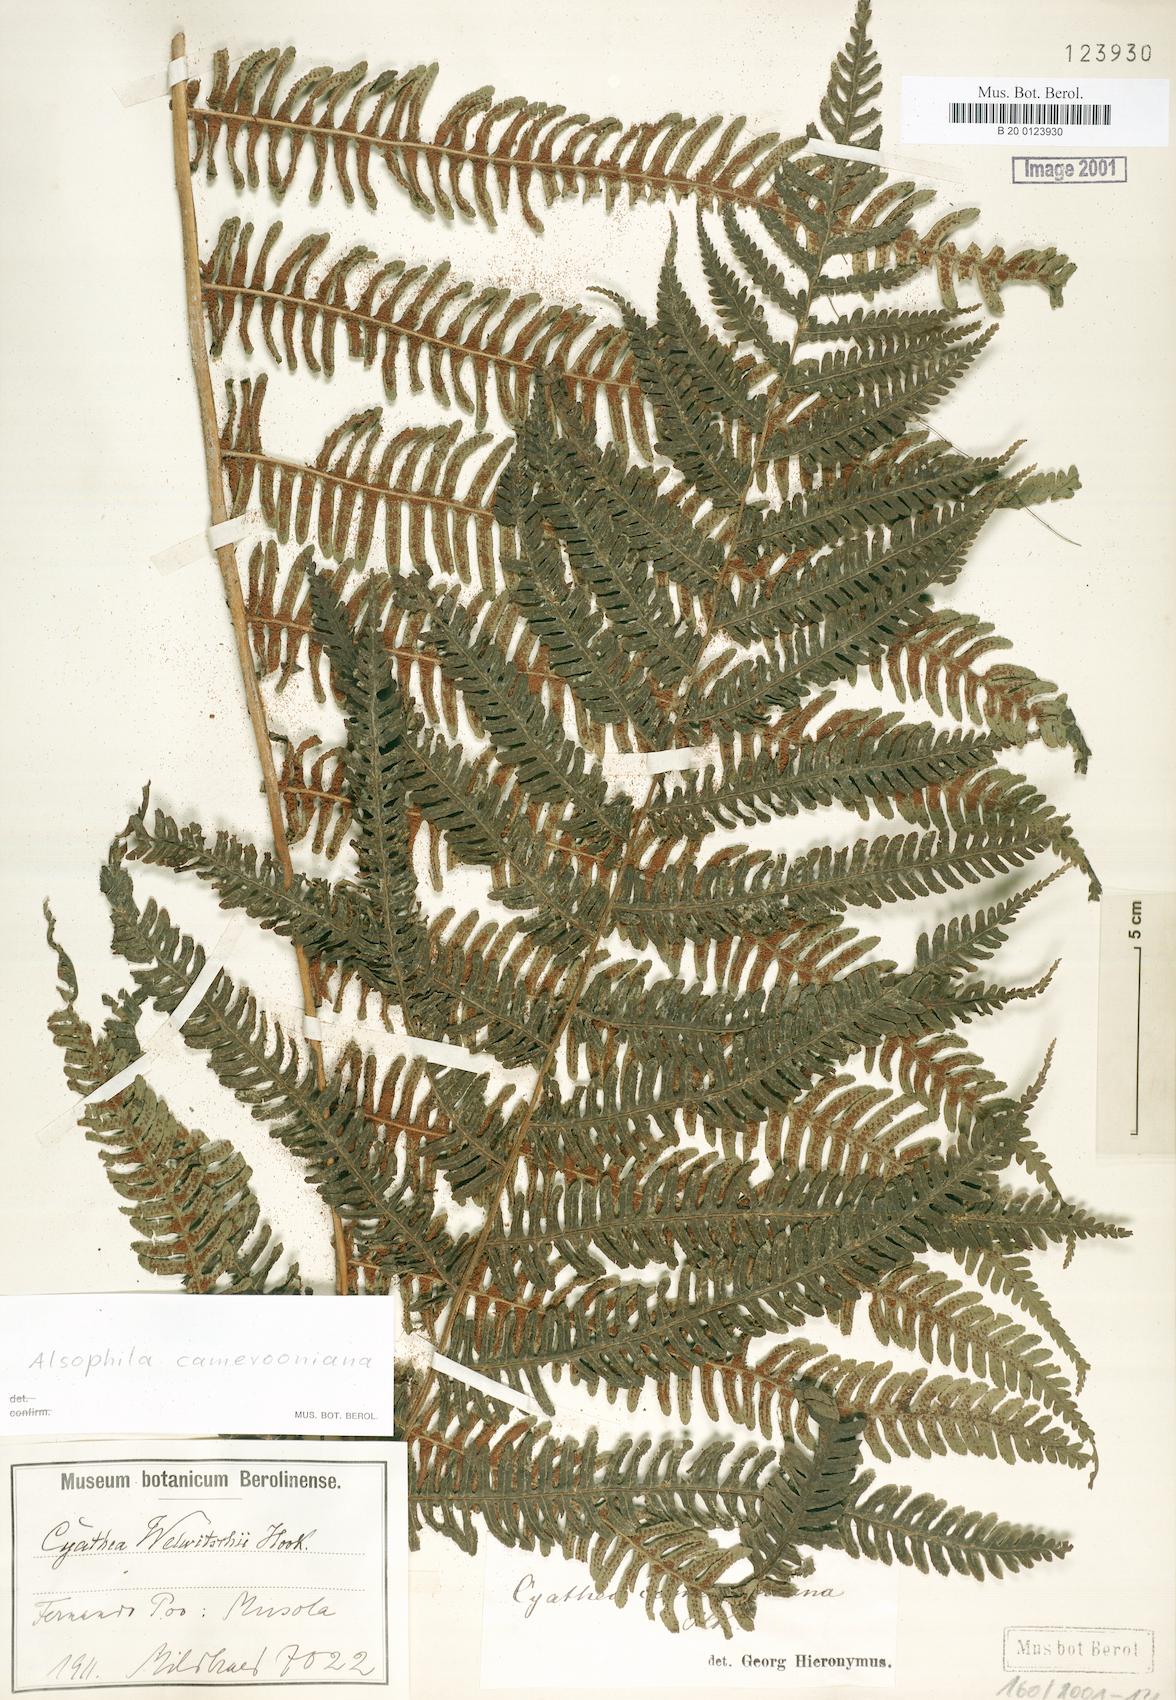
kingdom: Plantae
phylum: Tracheophyta
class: Polypodiopsida
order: Cyatheales
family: Cyatheaceae
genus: Alsophila
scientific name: Alsophila camerooniana
